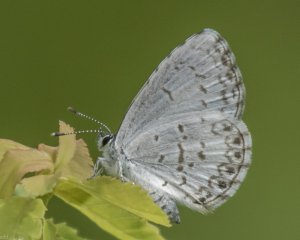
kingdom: Animalia
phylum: Arthropoda
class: Insecta
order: Lepidoptera
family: Lycaenidae
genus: Cyaniris
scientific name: Cyaniris neglecta
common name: Summer Azure
